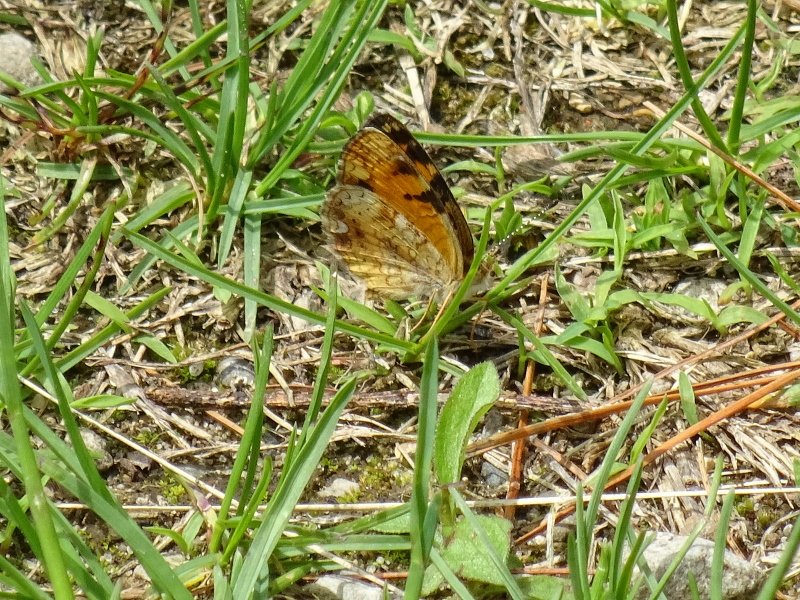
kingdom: Animalia
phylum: Arthropoda
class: Insecta
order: Lepidoptera
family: Nymphalidae
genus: Phyciodes
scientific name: Phyciodes tharos
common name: Pearl Crescent
